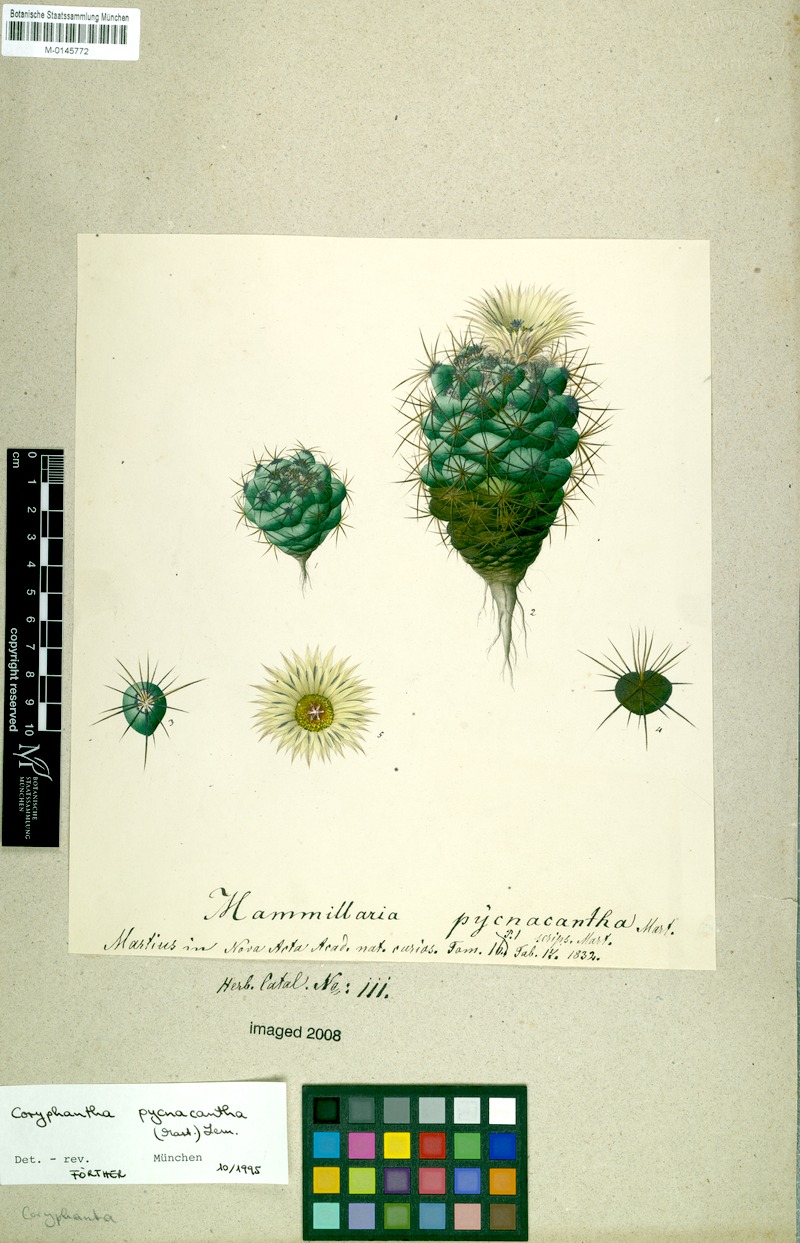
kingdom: Plantae
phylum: Tracheophyta
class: Magnoliopsida
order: Caryophyllales
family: Cactaceae
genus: Coryphantha
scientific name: Coryphantha pycnacantha
